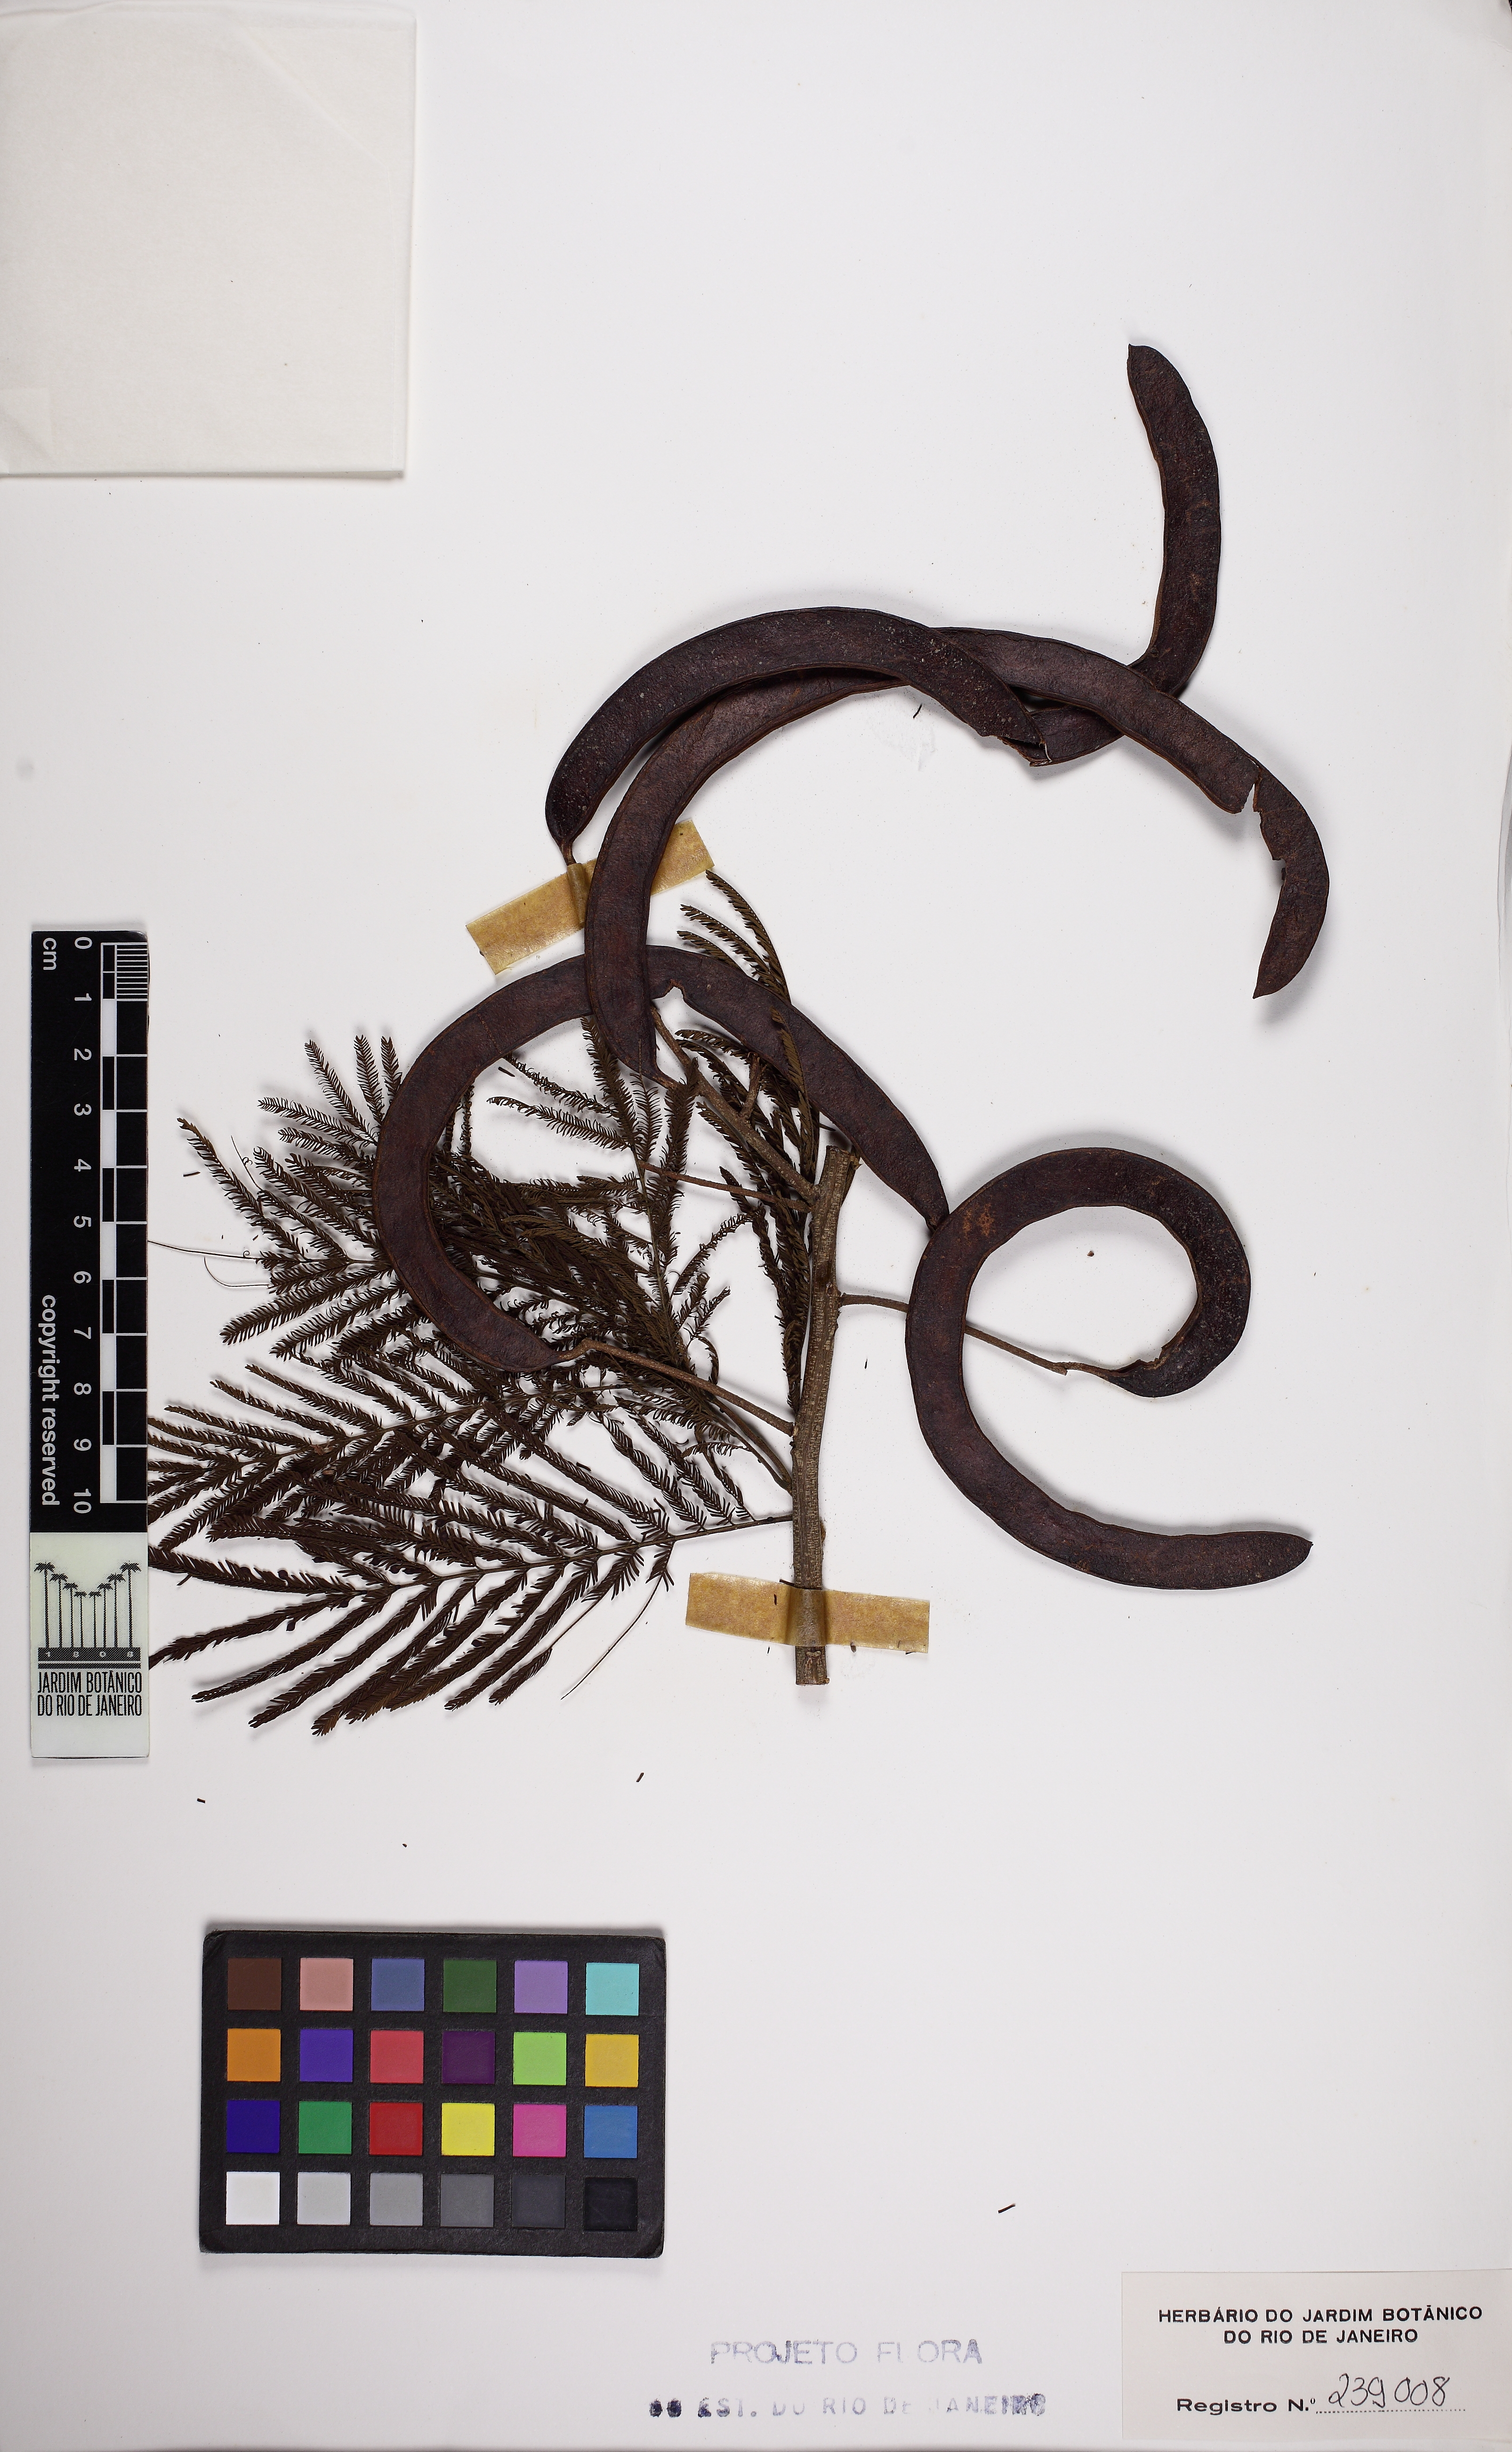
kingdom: Plantae
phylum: Tracheophyta
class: Magnoliopsida
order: Fabales
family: Fabaceae
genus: Pseudopiptadenia
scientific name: Pseudopiptadenia contorta
